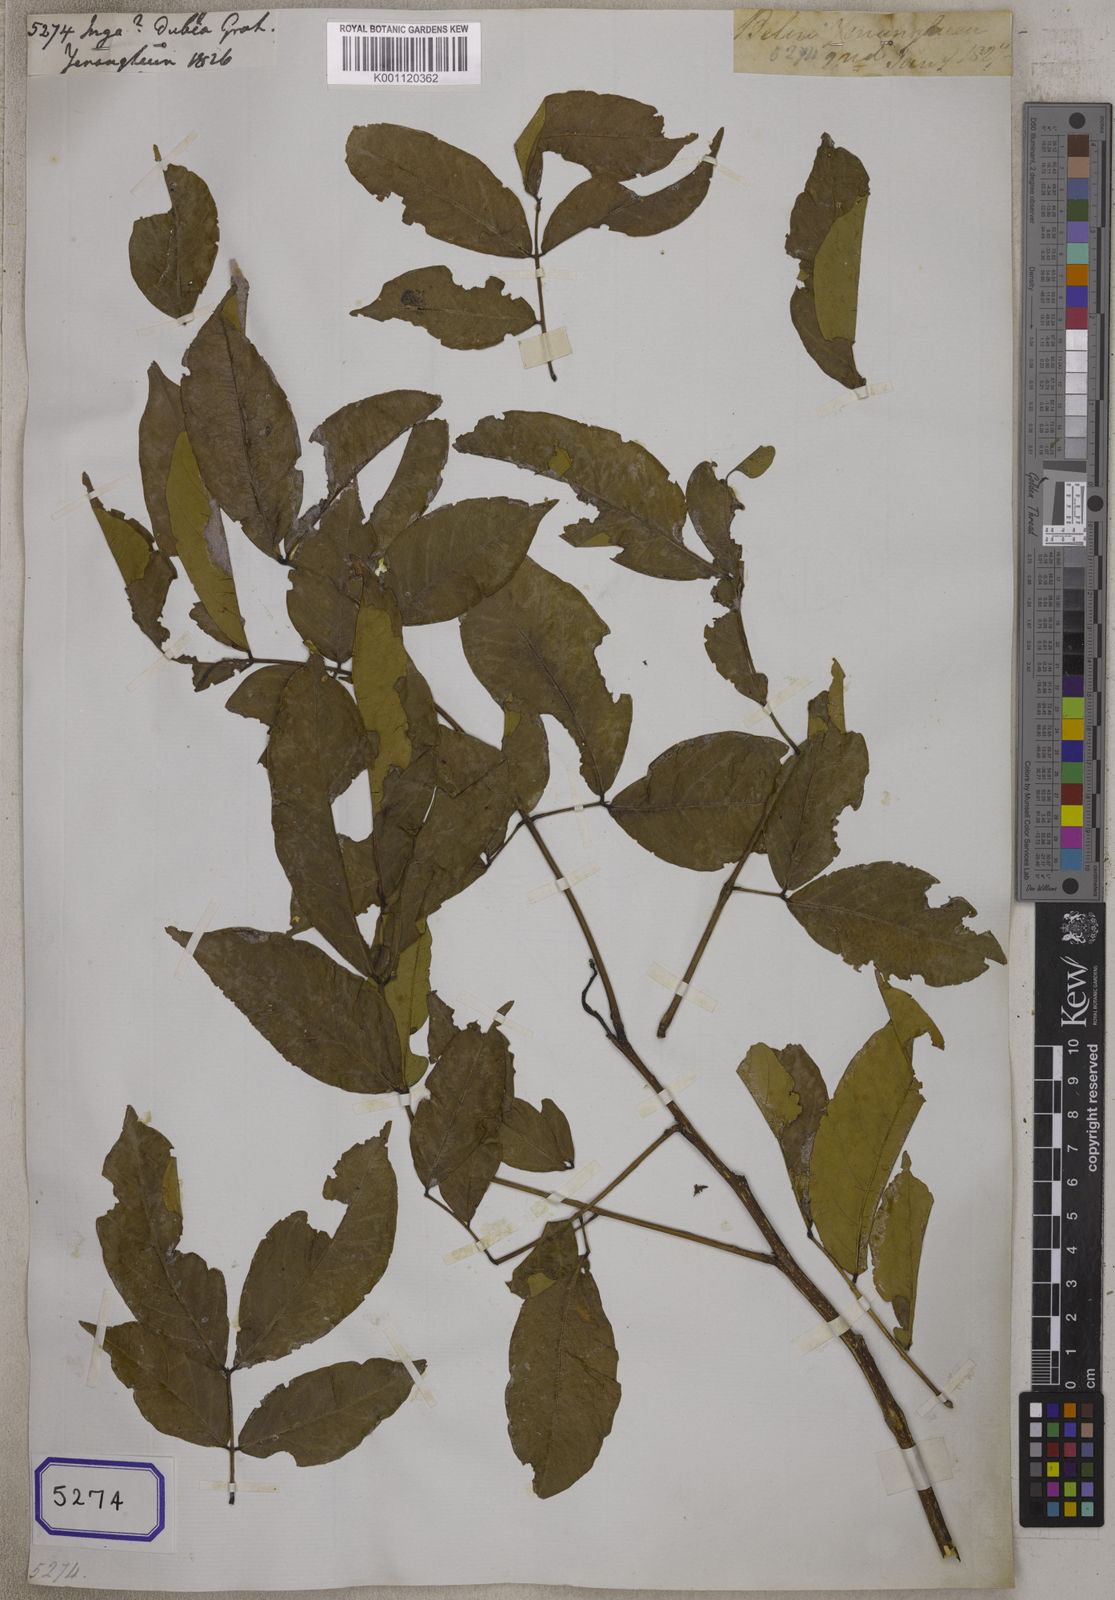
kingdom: Plantae
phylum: Tracheophyta
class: Magnoliopsida
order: Fabales
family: Fabaceae
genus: Inga
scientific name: Inga dubia
